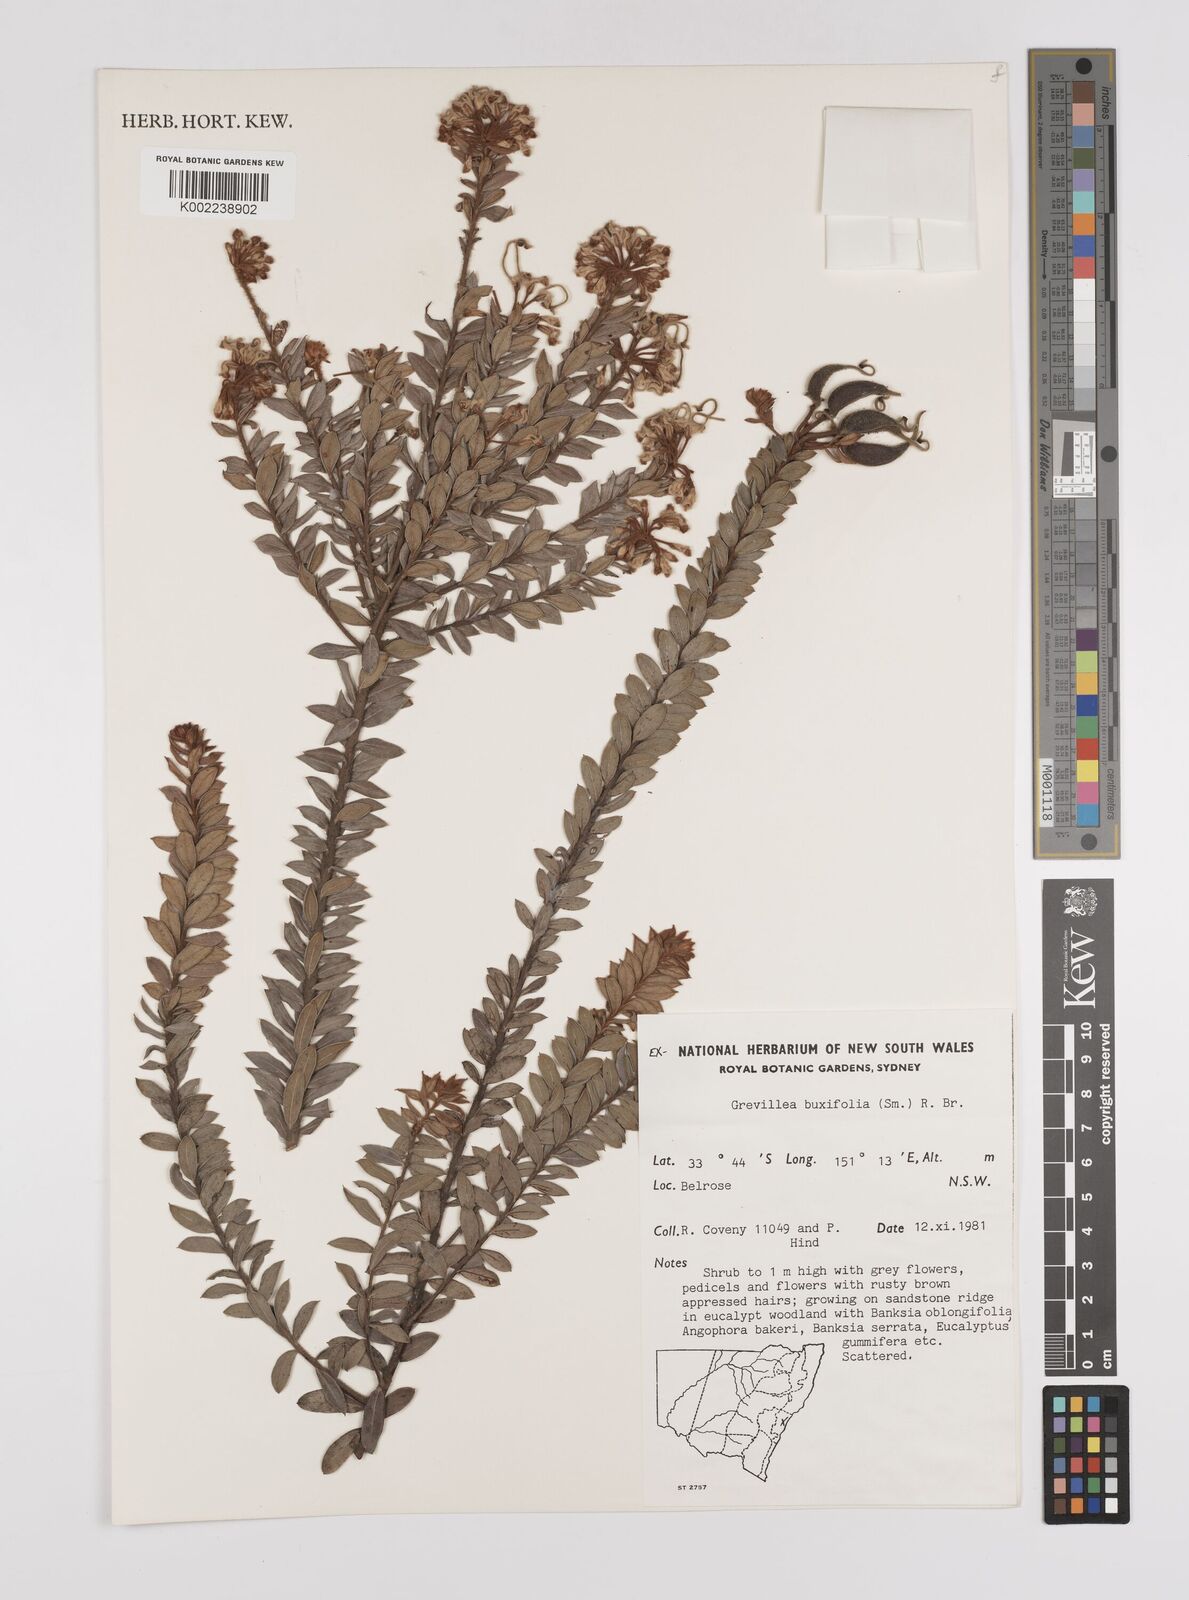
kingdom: Plantae
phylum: Tracheophyta
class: Magnoliopsida
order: Proteales
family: Proteaceae
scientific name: Proteaceae
